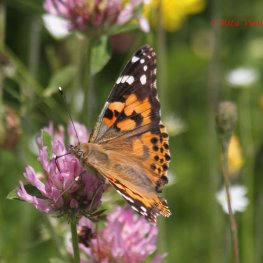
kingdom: Animalia
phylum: Arthropoda
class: Insecta
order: Lepidoptera
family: Nymphalidae
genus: Vanessa
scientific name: Vanessa cardui
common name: Painted Lady
